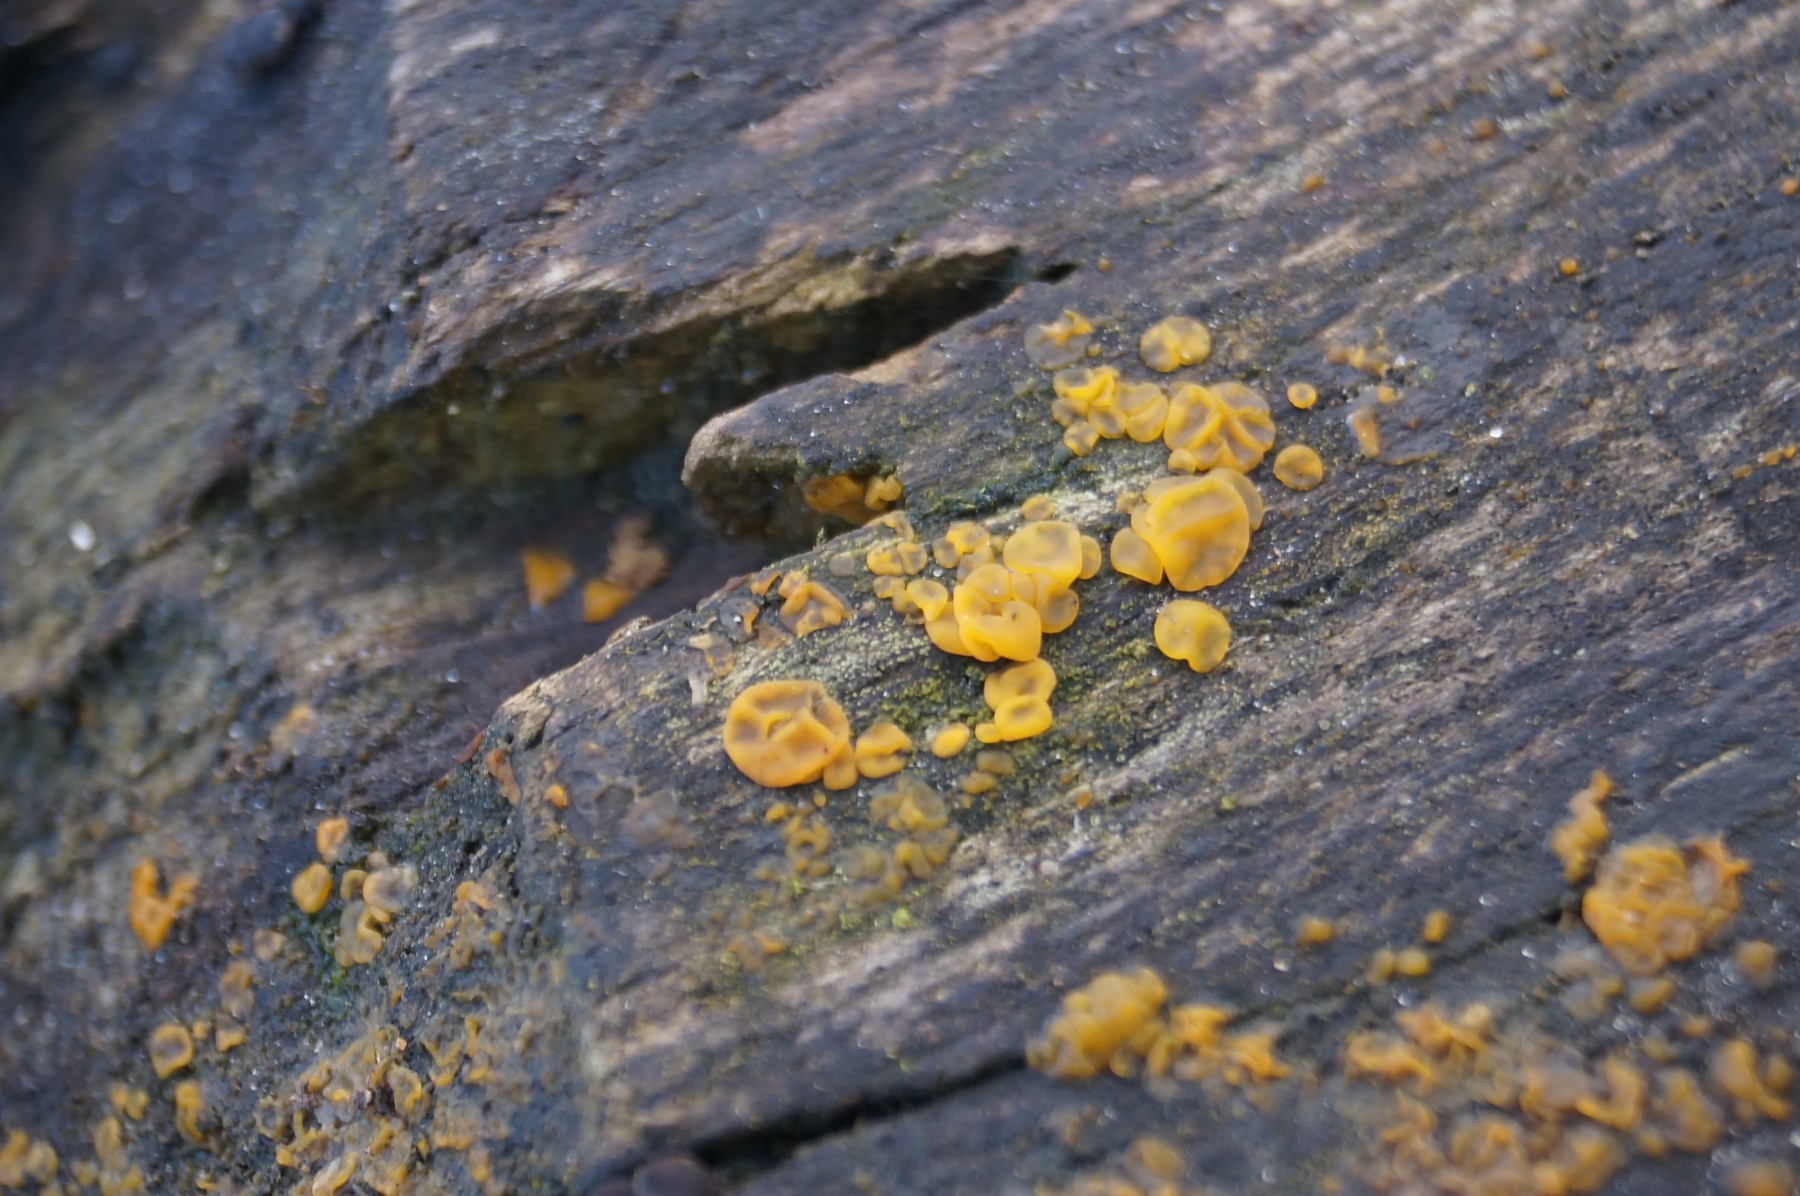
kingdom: Fungi
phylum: Basidiomycota
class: Dacrymycetes
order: Dacrymycetales
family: Dacrymycetaceae
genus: Dacrymyces
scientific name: Dacrymyces lacrymalis
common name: rynket tåresvamp
